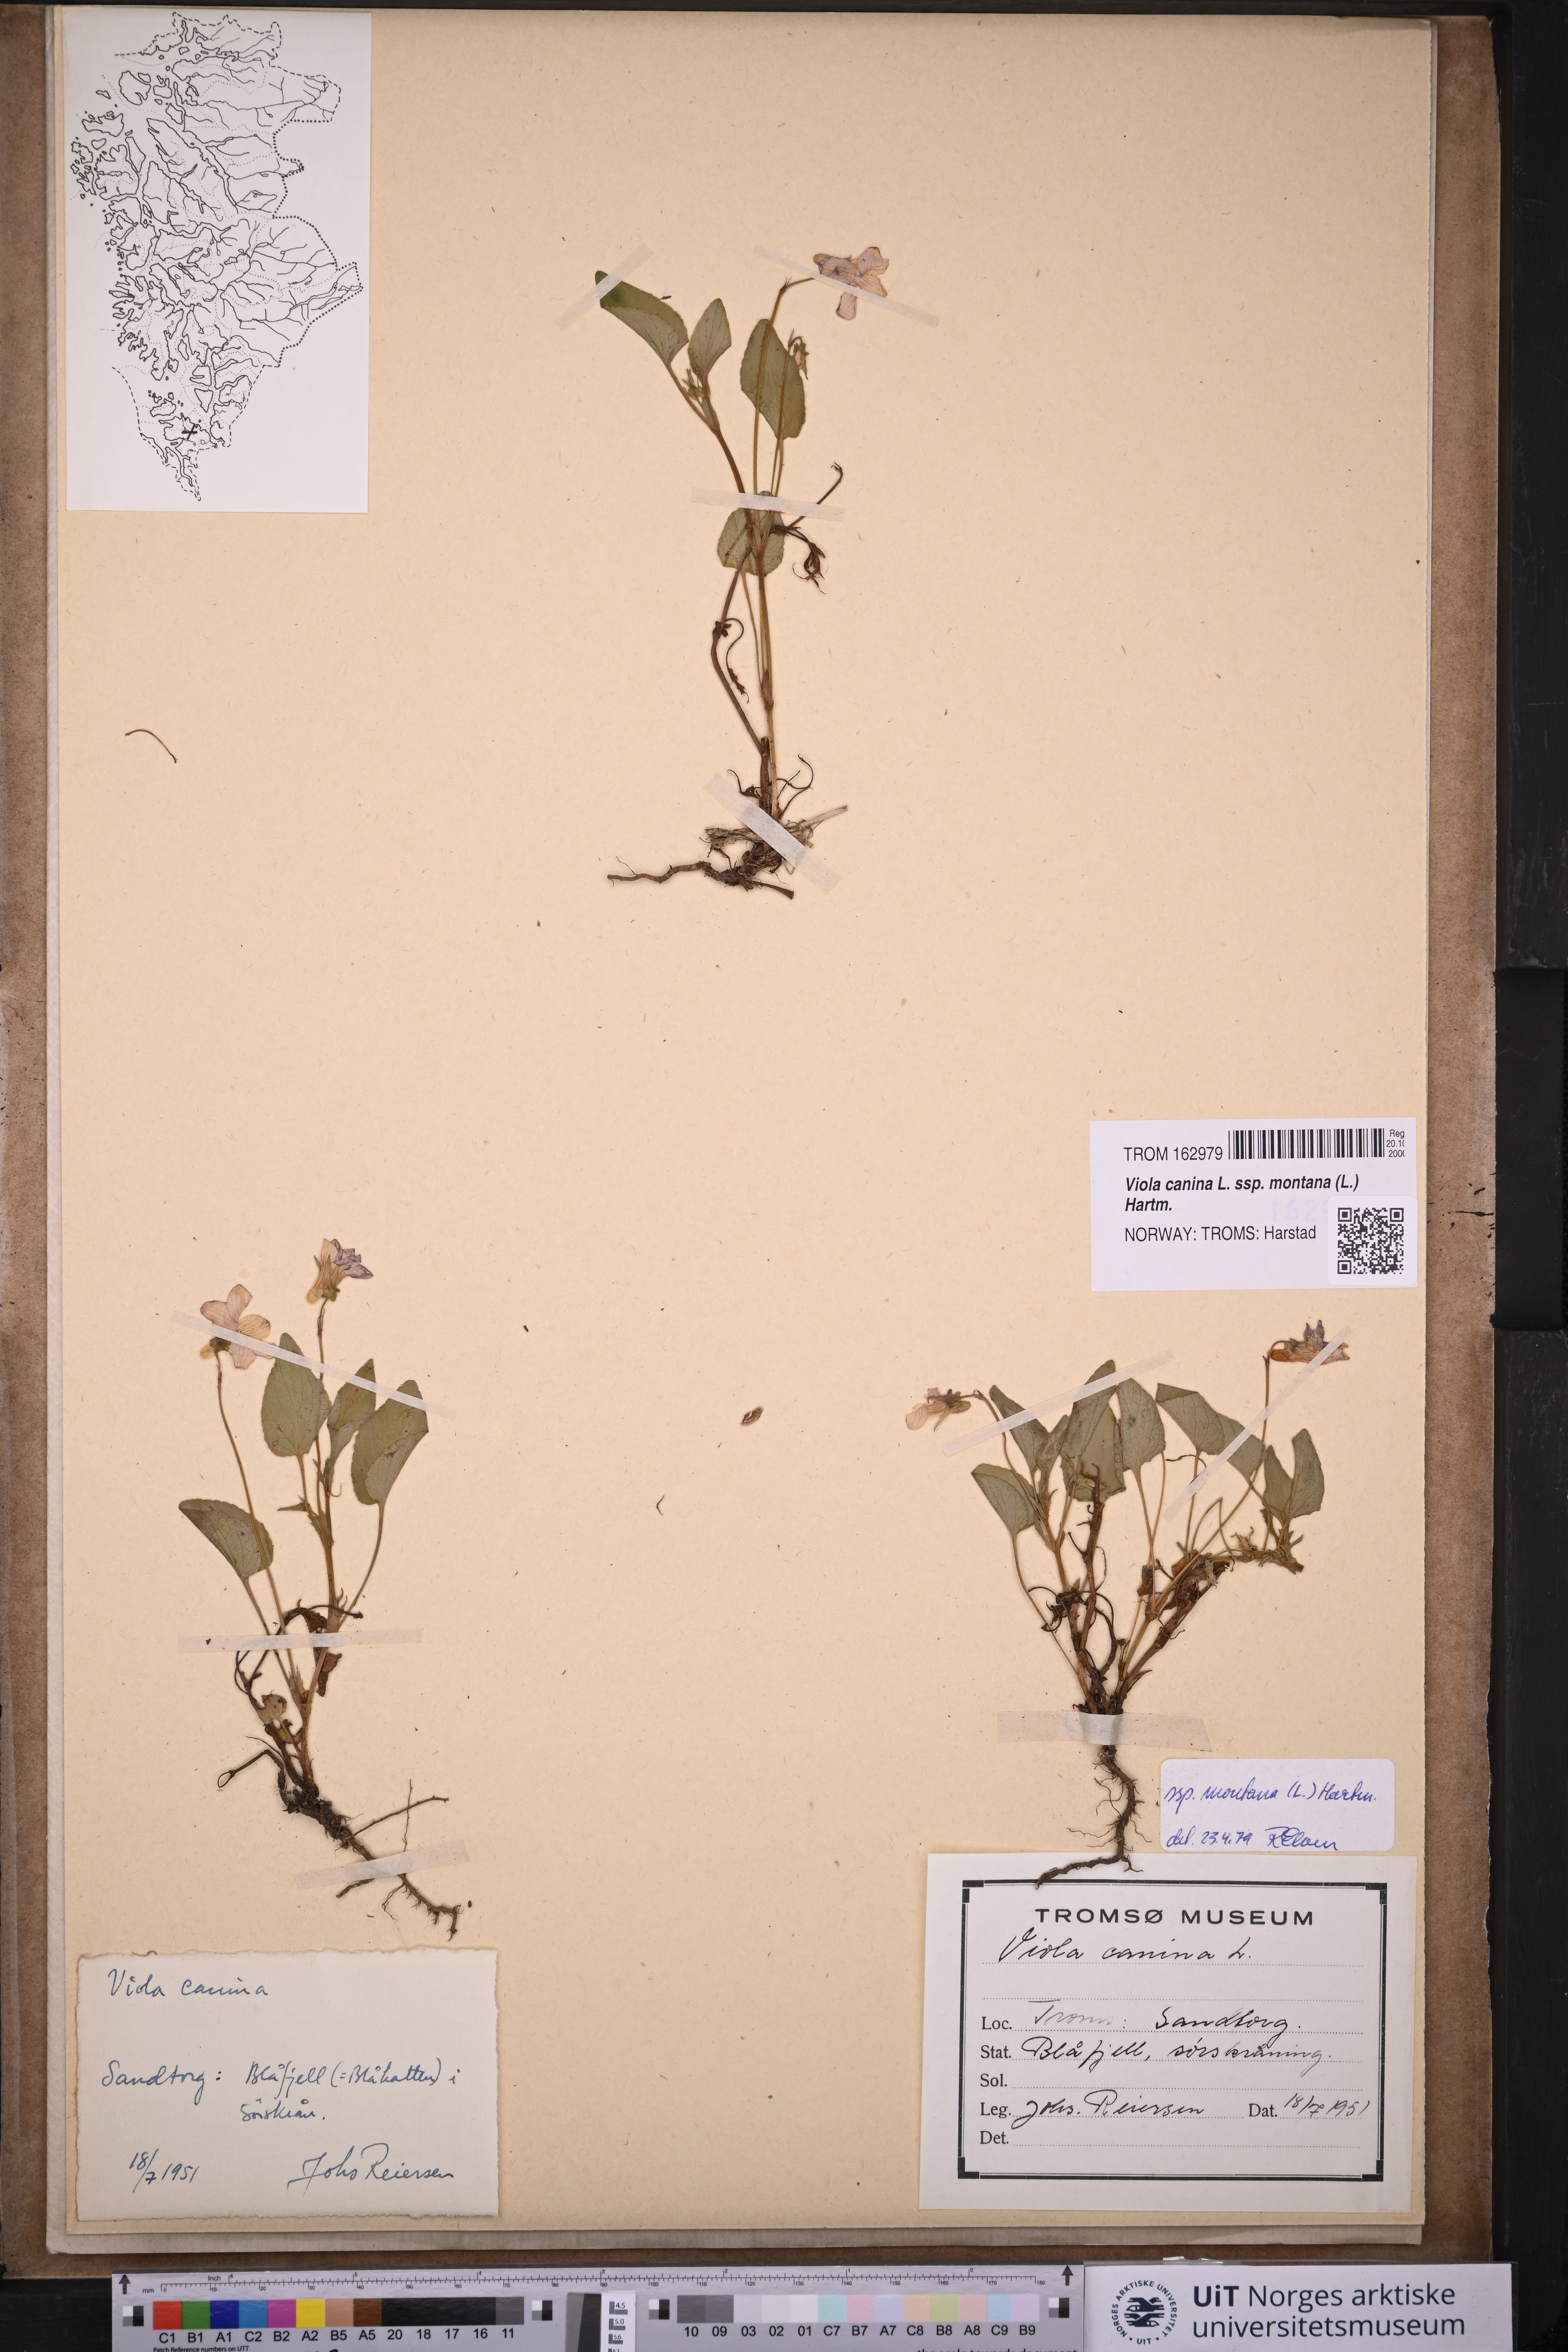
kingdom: Plantae
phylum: Tracheophyta
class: Magnoliopsida
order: Malpighiales
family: Violaceae
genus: Viola
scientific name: Viola ruppii
